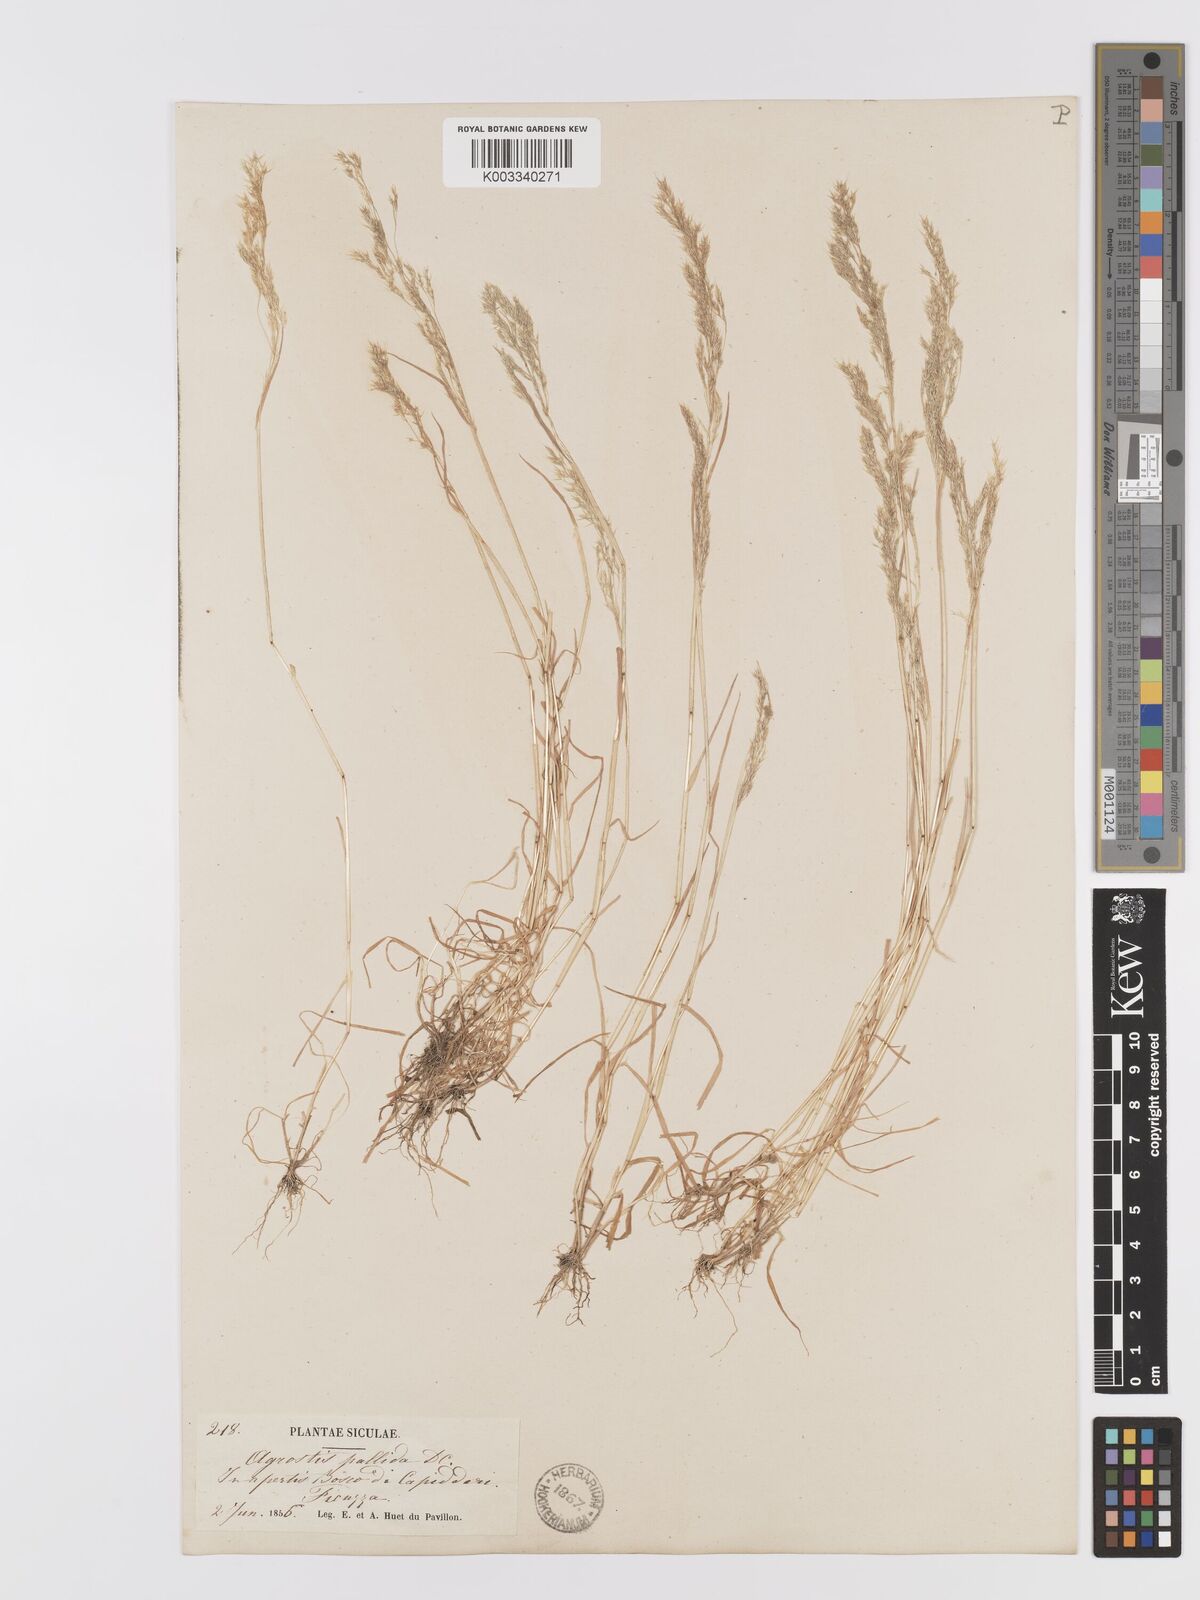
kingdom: Plantae
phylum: Tracheophyta
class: Liliopsida
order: Poales
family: Poaceae
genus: Agrostis
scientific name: Agrostis pourretii
